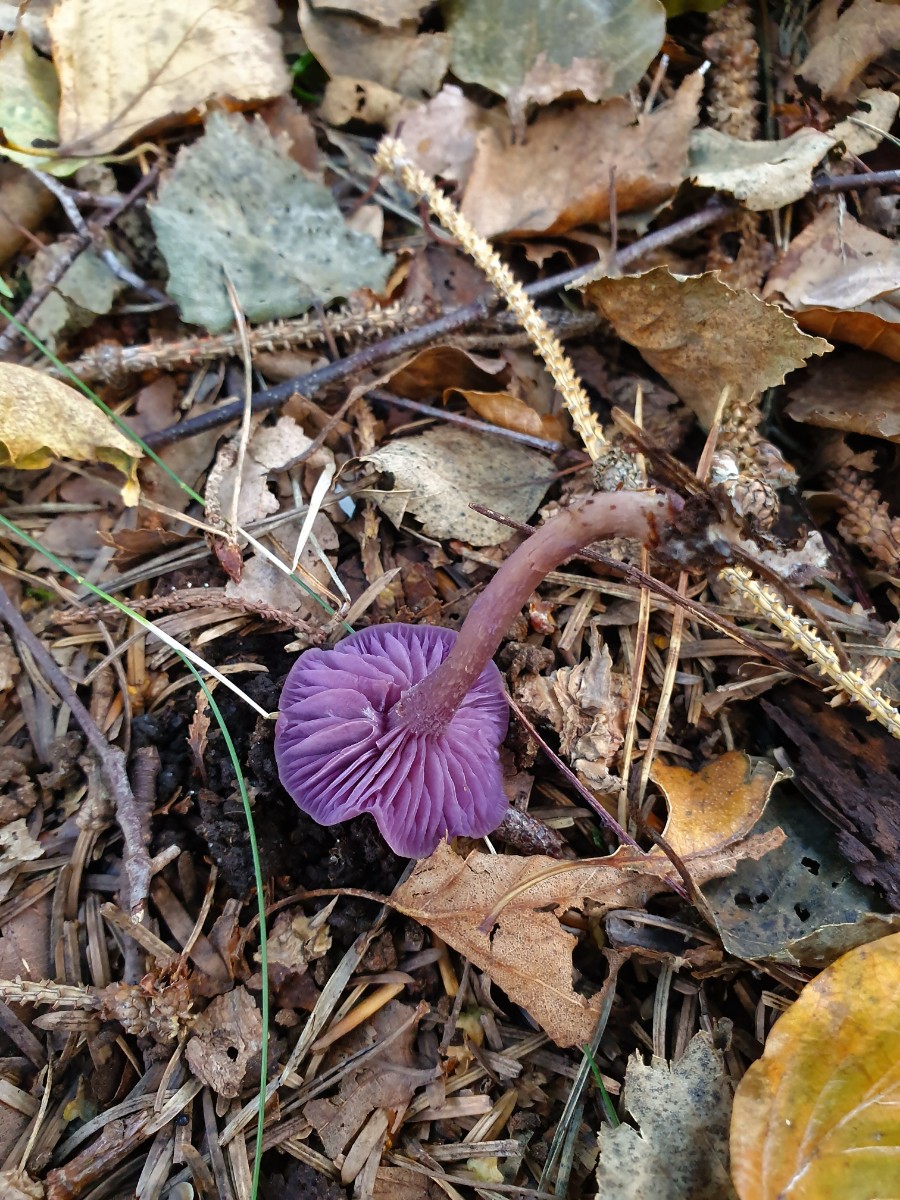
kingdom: Fungi
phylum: Basidiomycota
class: Agaricomycetes
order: Agaricales
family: Hydnangiaceae
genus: Laccaria
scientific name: Laccaria amethystina
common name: violet ametysthat
